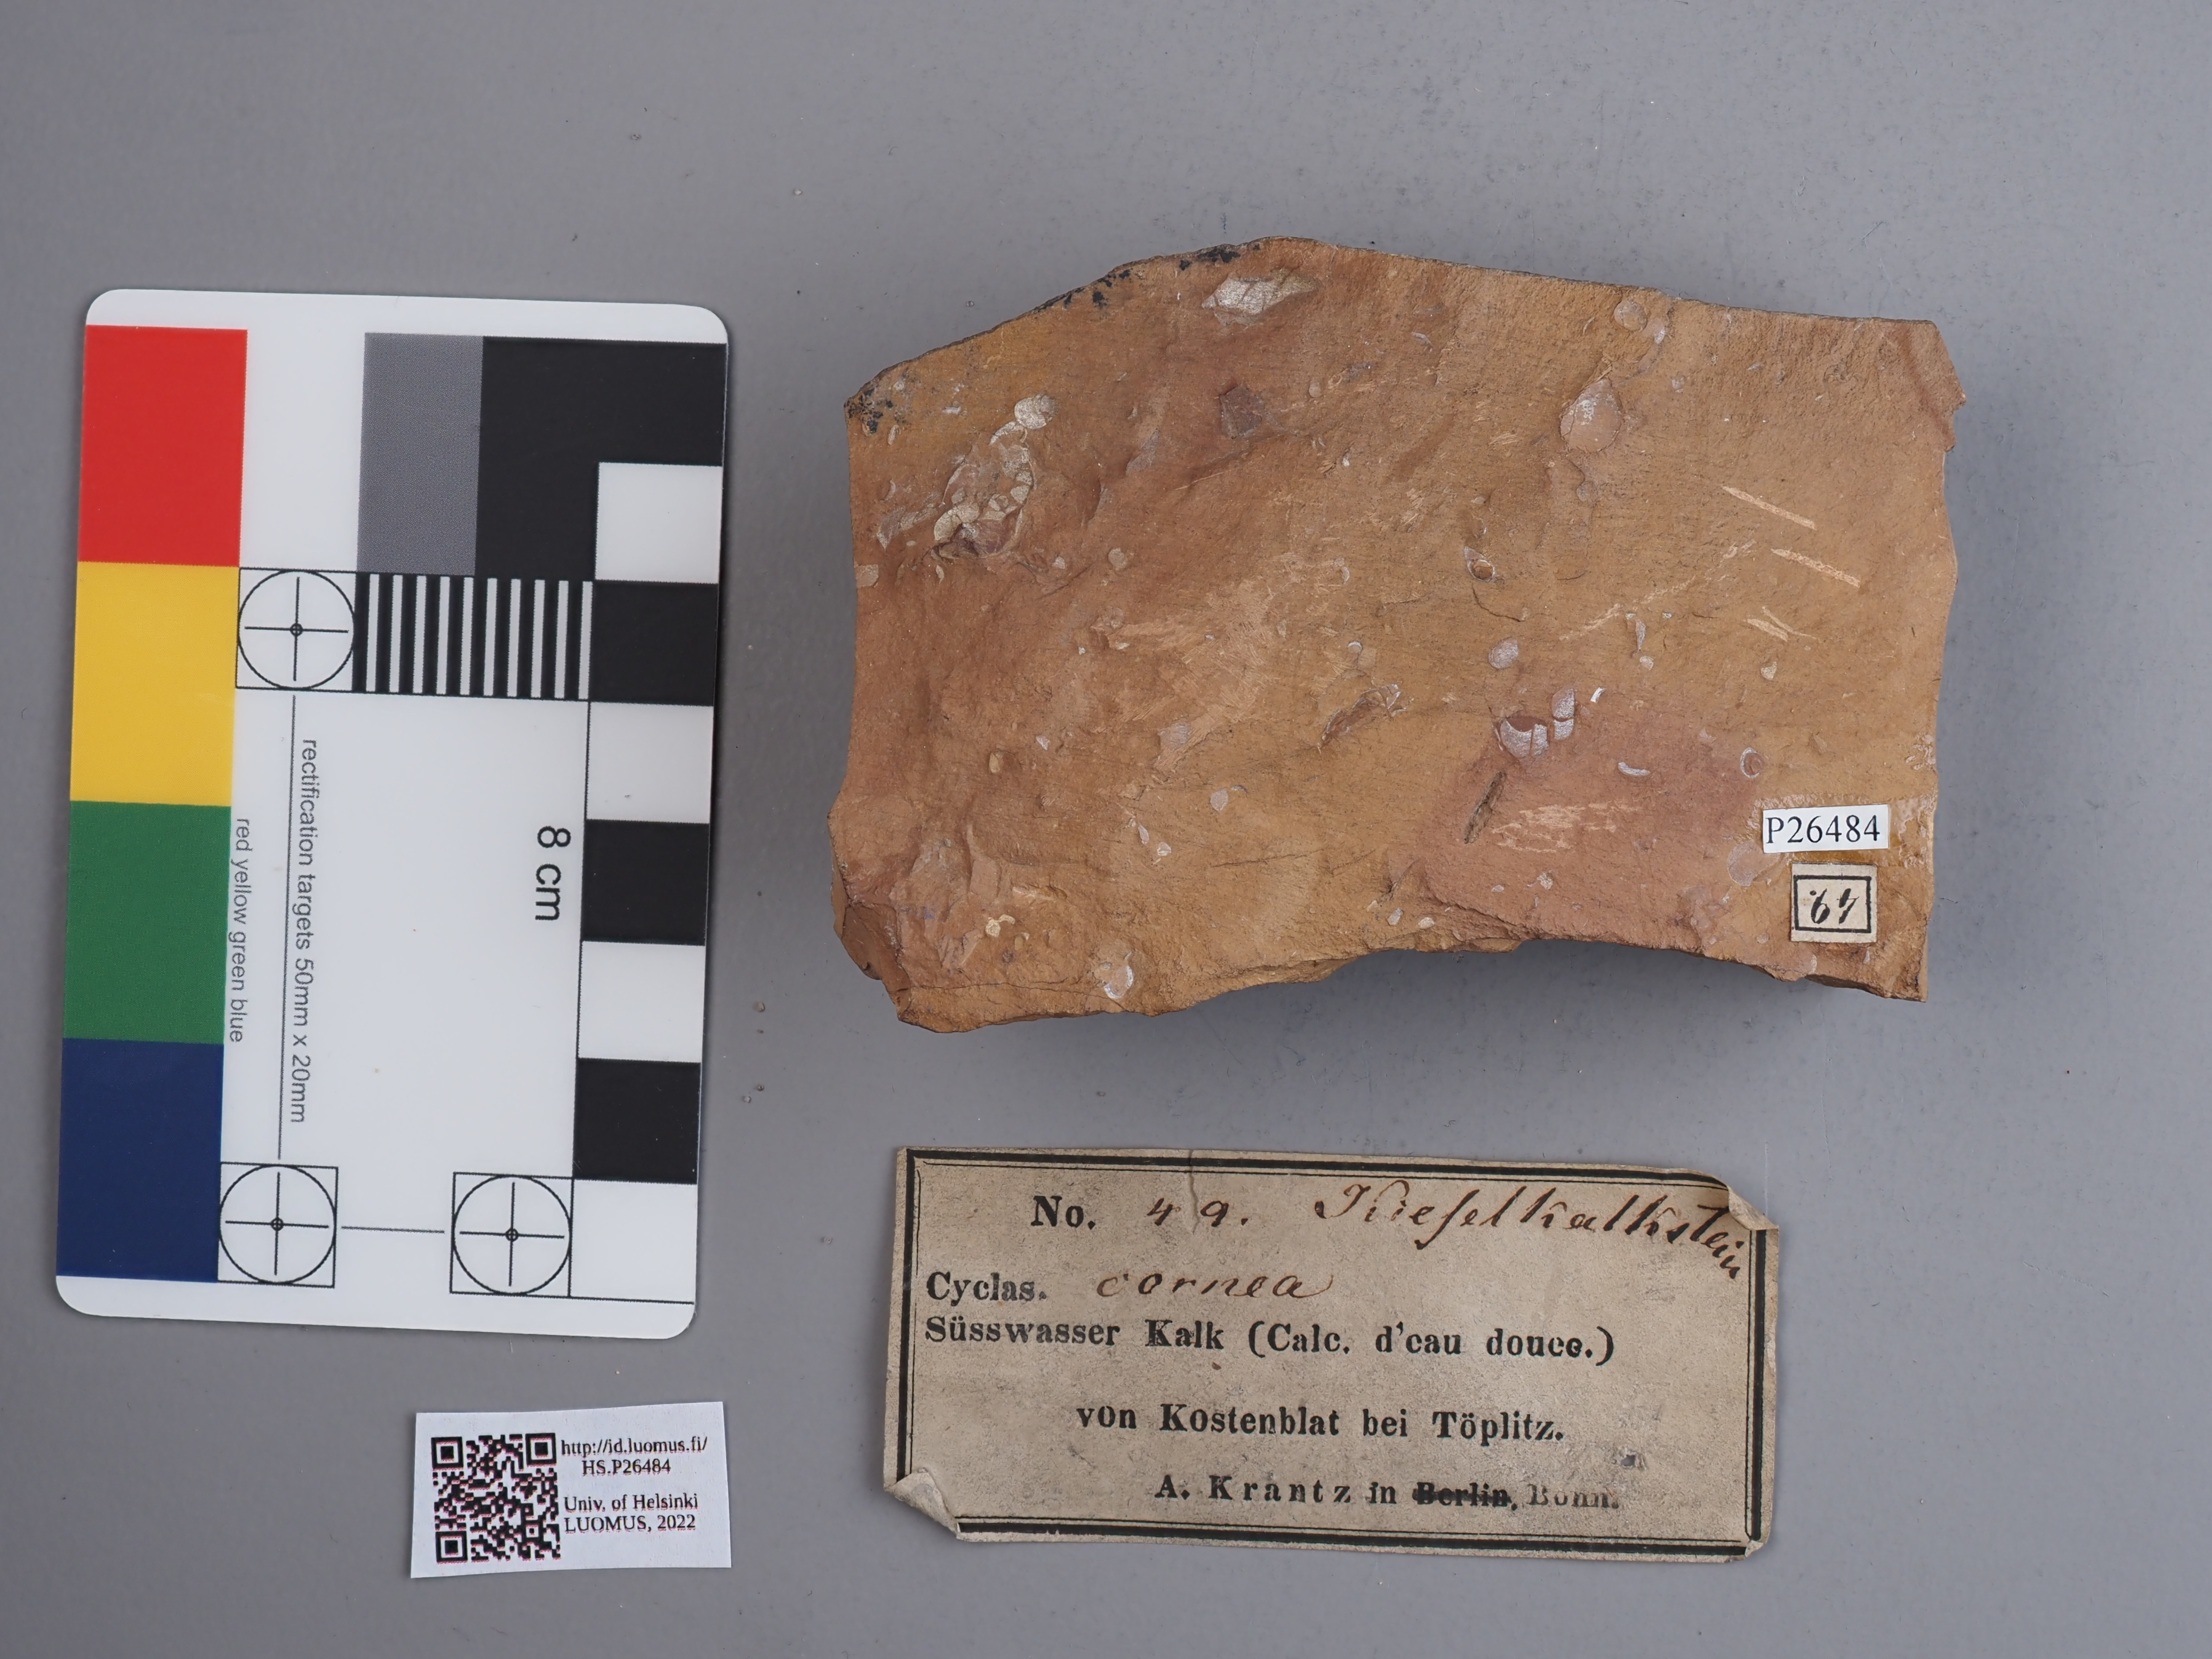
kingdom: Animalia
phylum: Mollusca
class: Bivalvia
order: Sphaeriida
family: Sphaeriidae
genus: Sphaerium
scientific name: Sphaerium corneum
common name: Horny orb mussel
